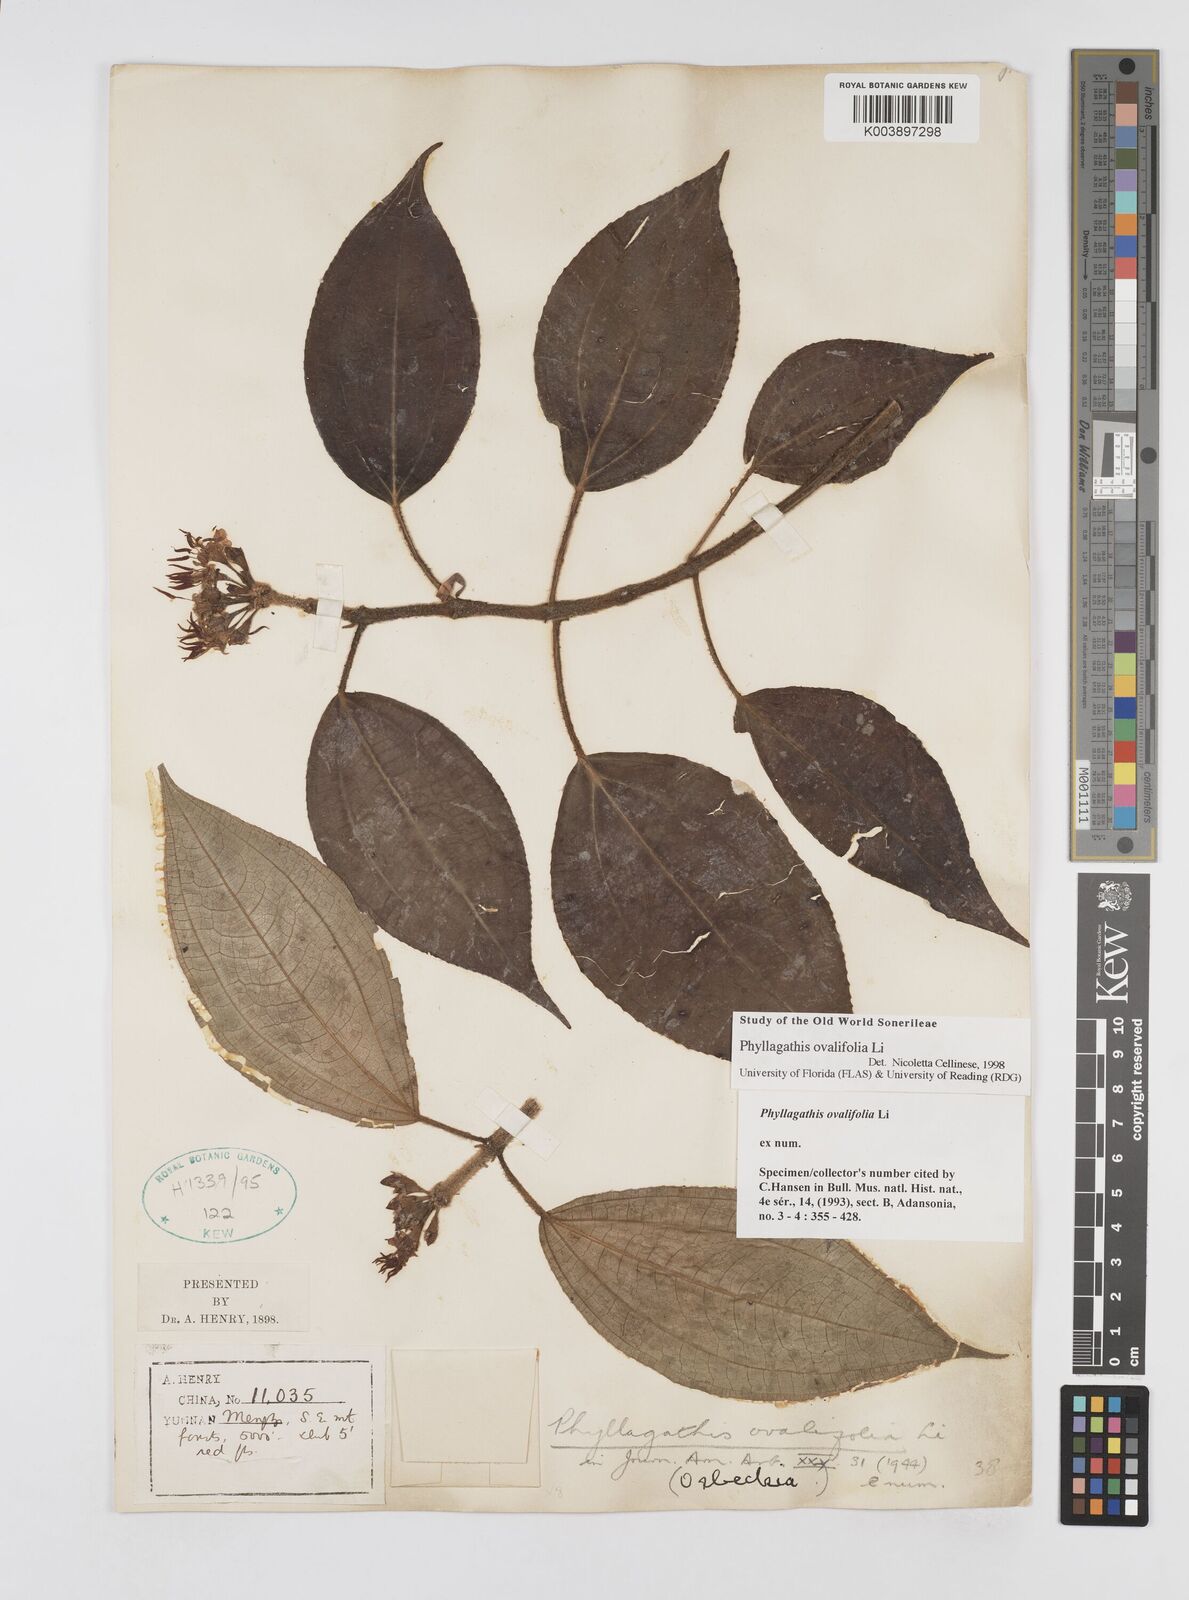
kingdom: Plantae
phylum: Tracheophyta
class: Magnoliopsida
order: Myrtales
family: Melastomataceae
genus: Phyllagathis
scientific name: Phyllagathis ovalifolia
